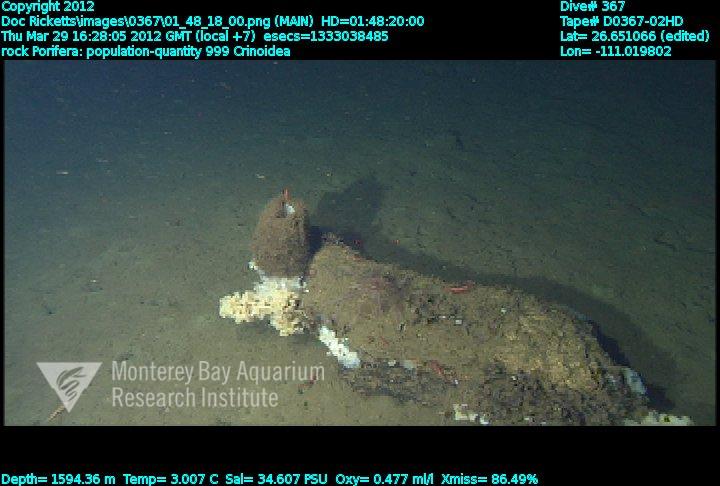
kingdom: Animalia
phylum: Porifera
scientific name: Porifera
